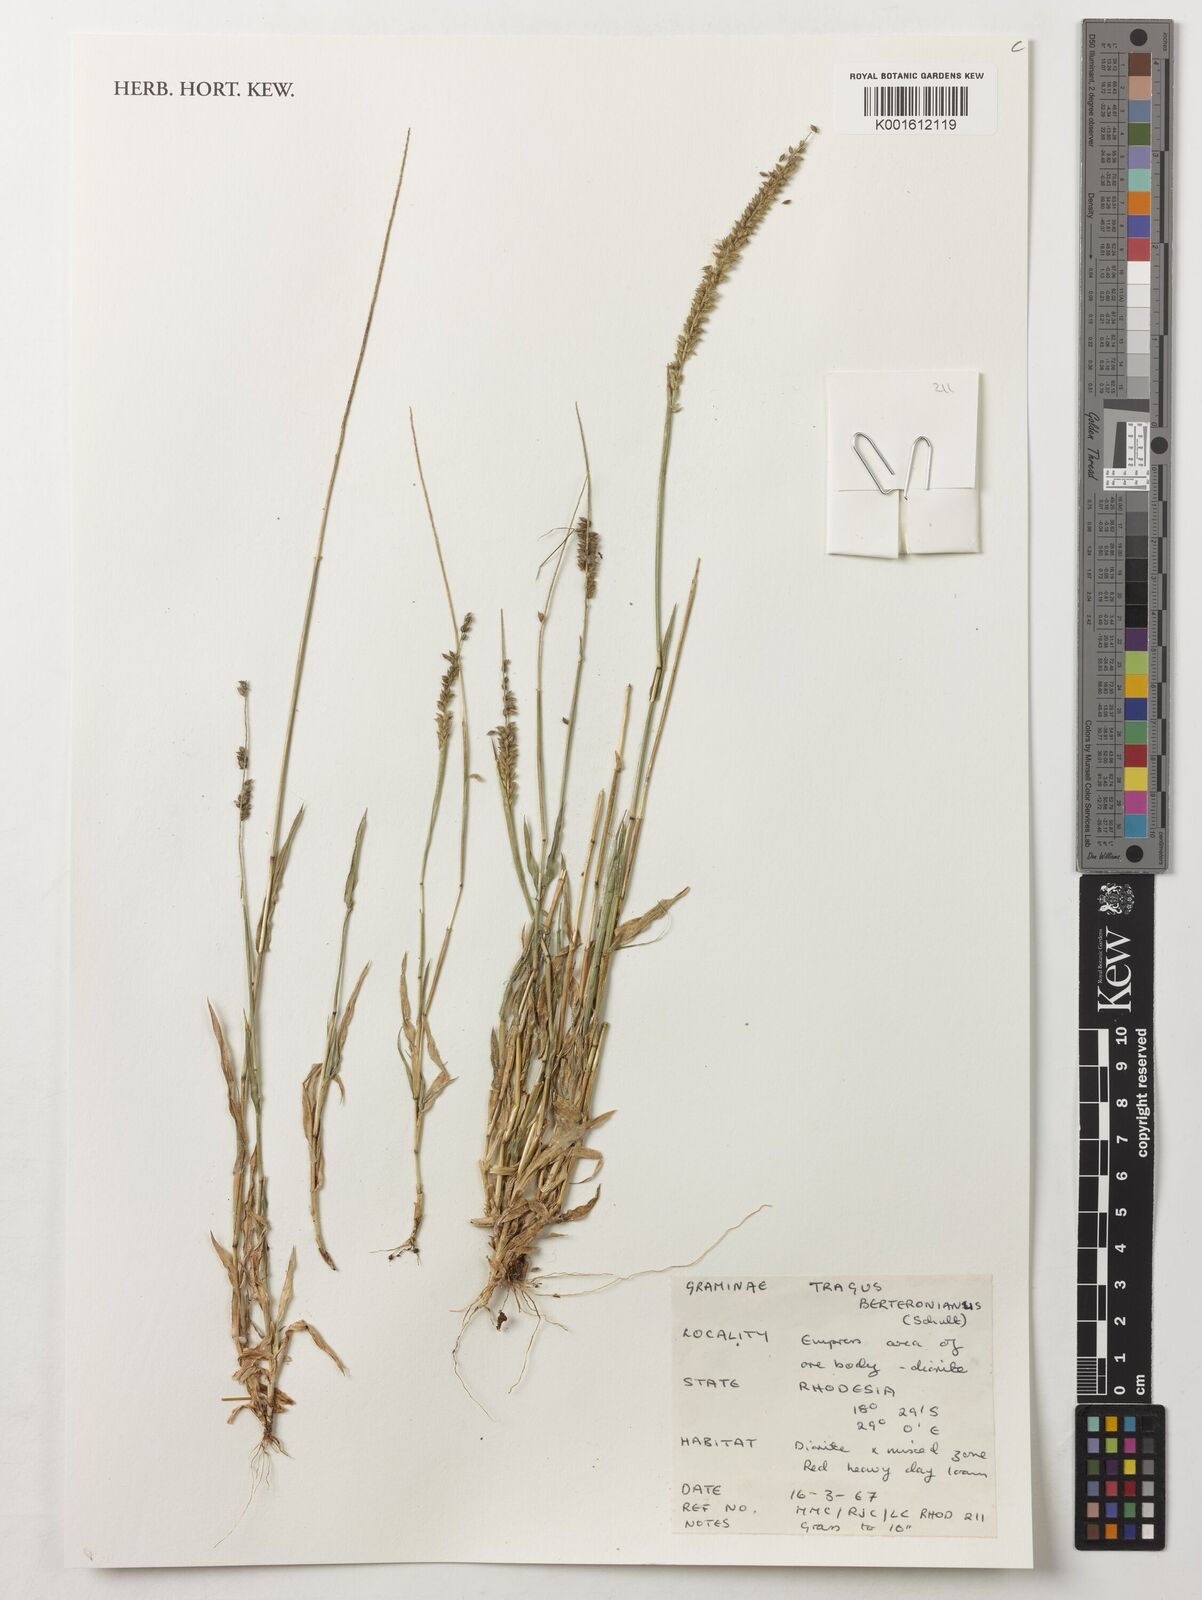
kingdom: Plantae
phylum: Tracheophyta
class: Liliopsida
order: Poales
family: Poaceae
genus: Tragus
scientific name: Tragus berteronianus
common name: African bur-grass
